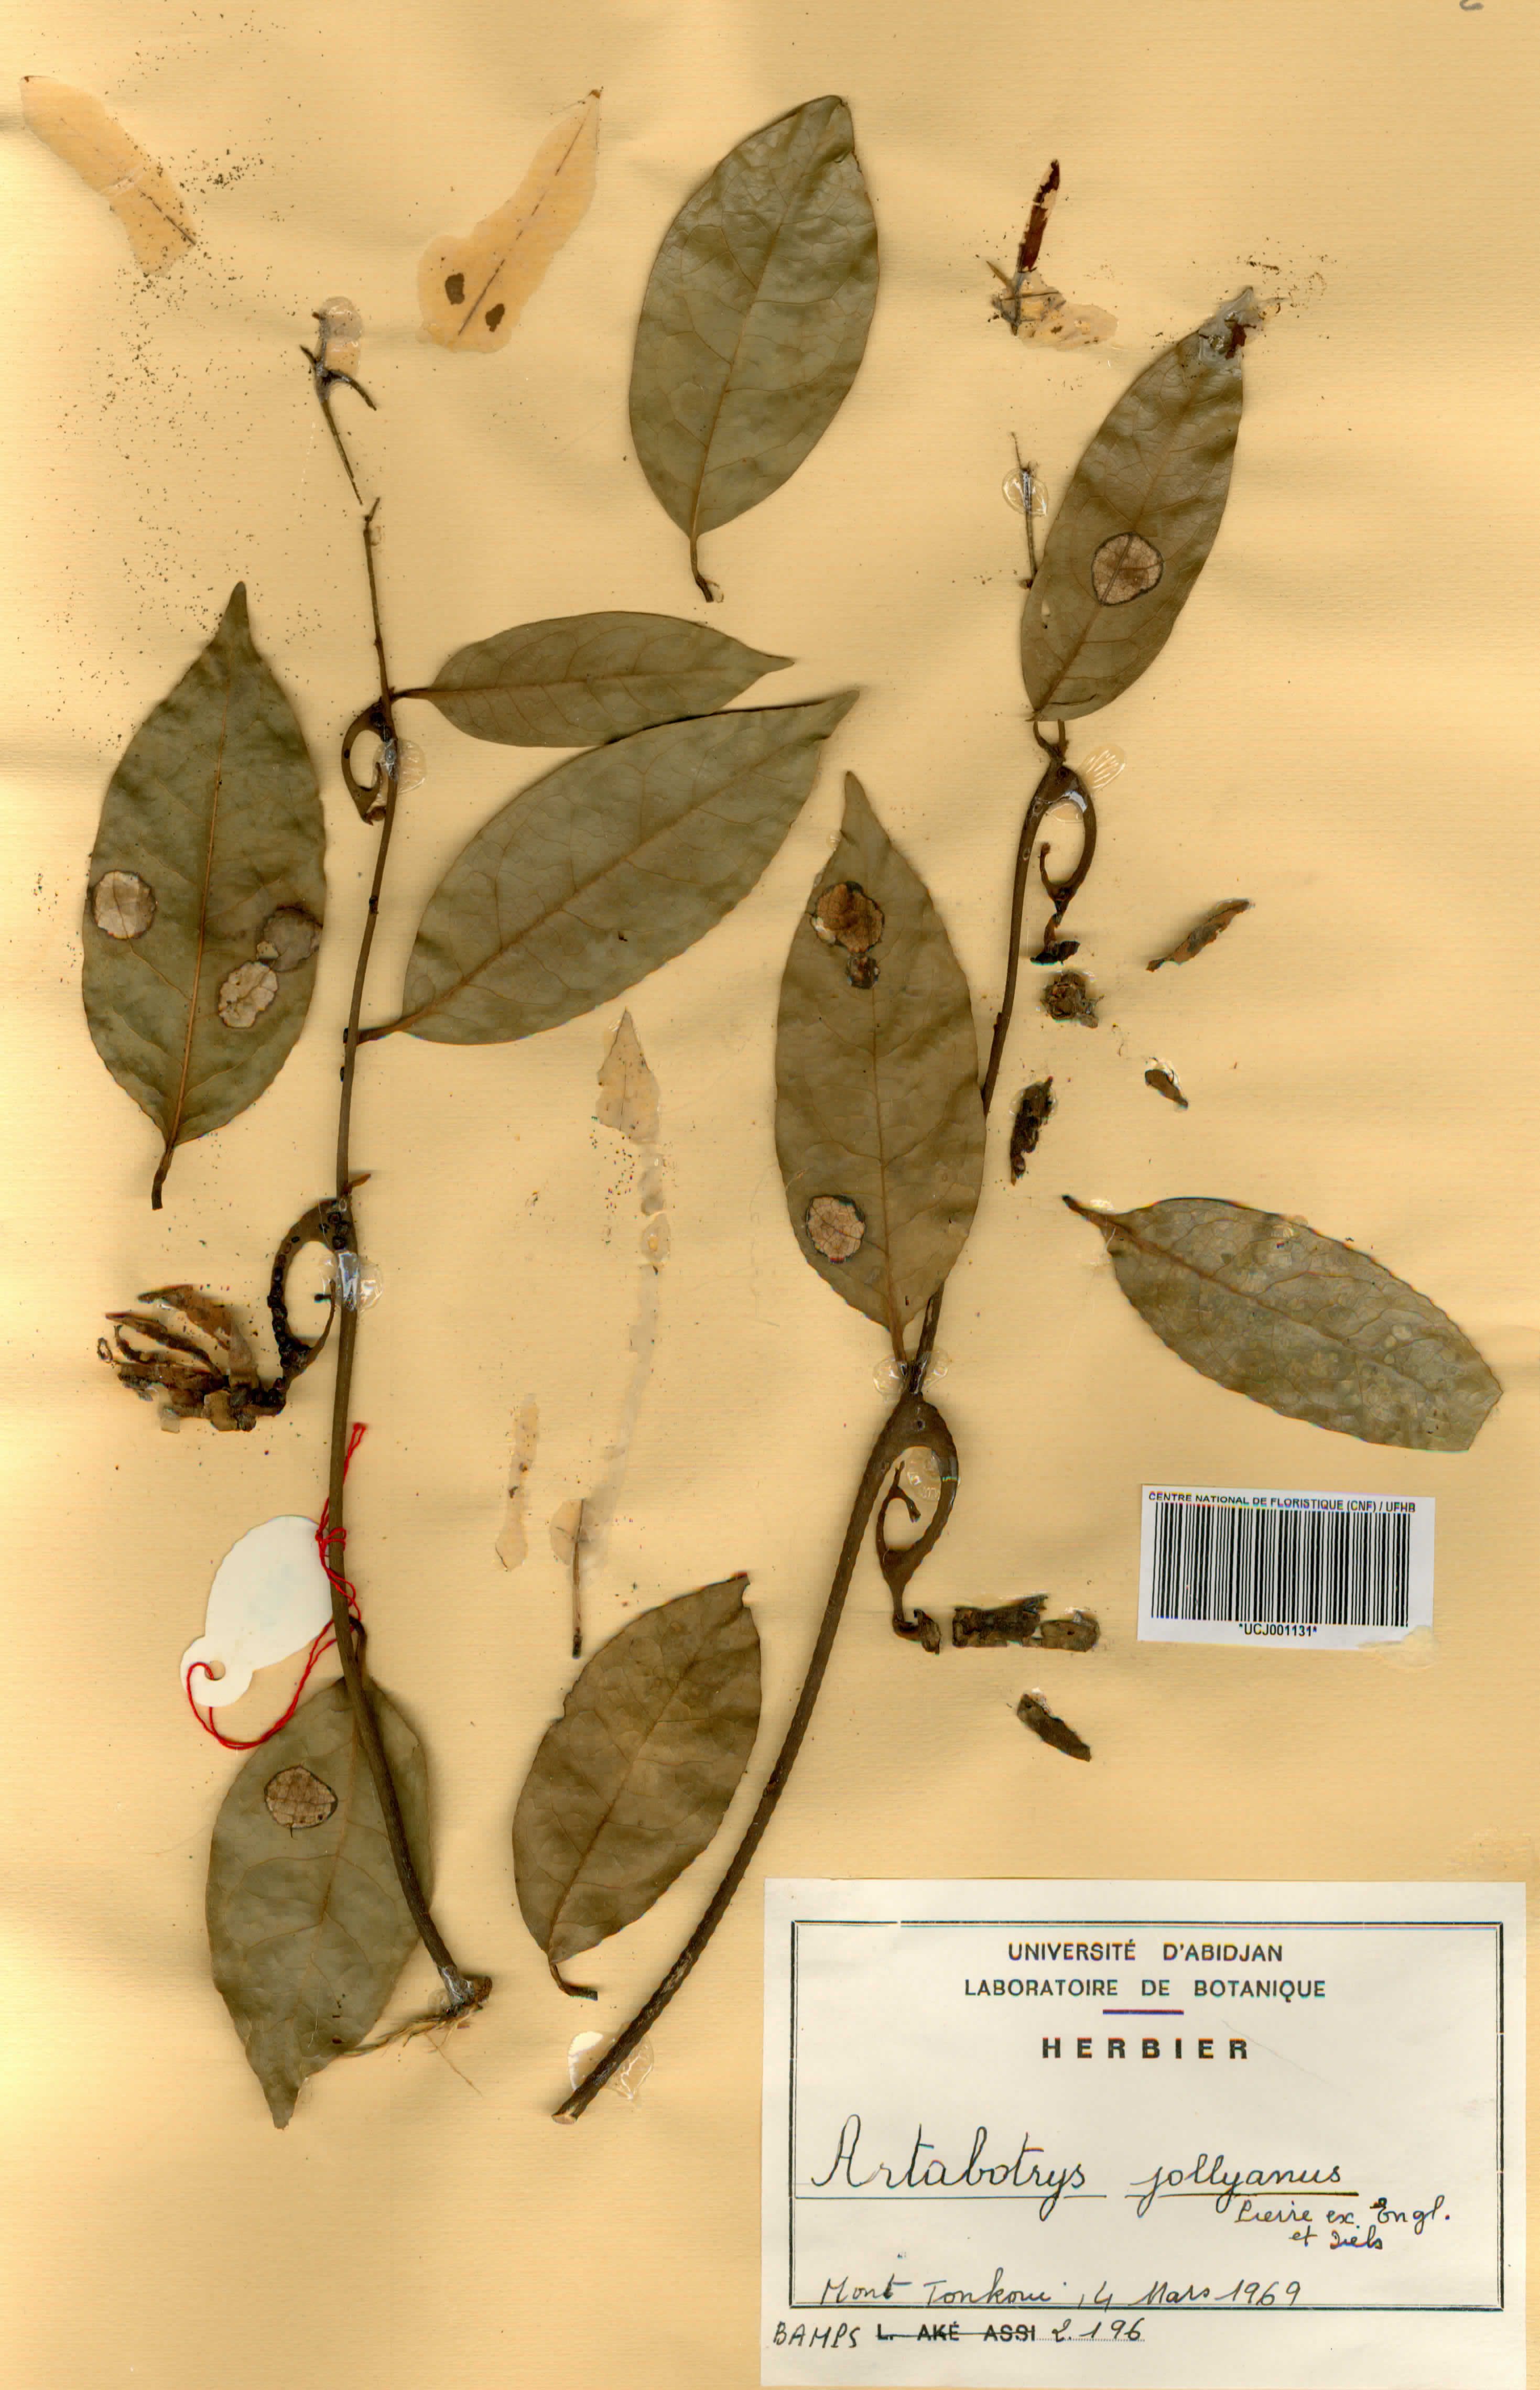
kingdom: Plantae
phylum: Tracheophyta
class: Magnoliopsida
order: Magnoliales
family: Annonaceae
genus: Artabotrys
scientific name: Artabotrys jollyanus
